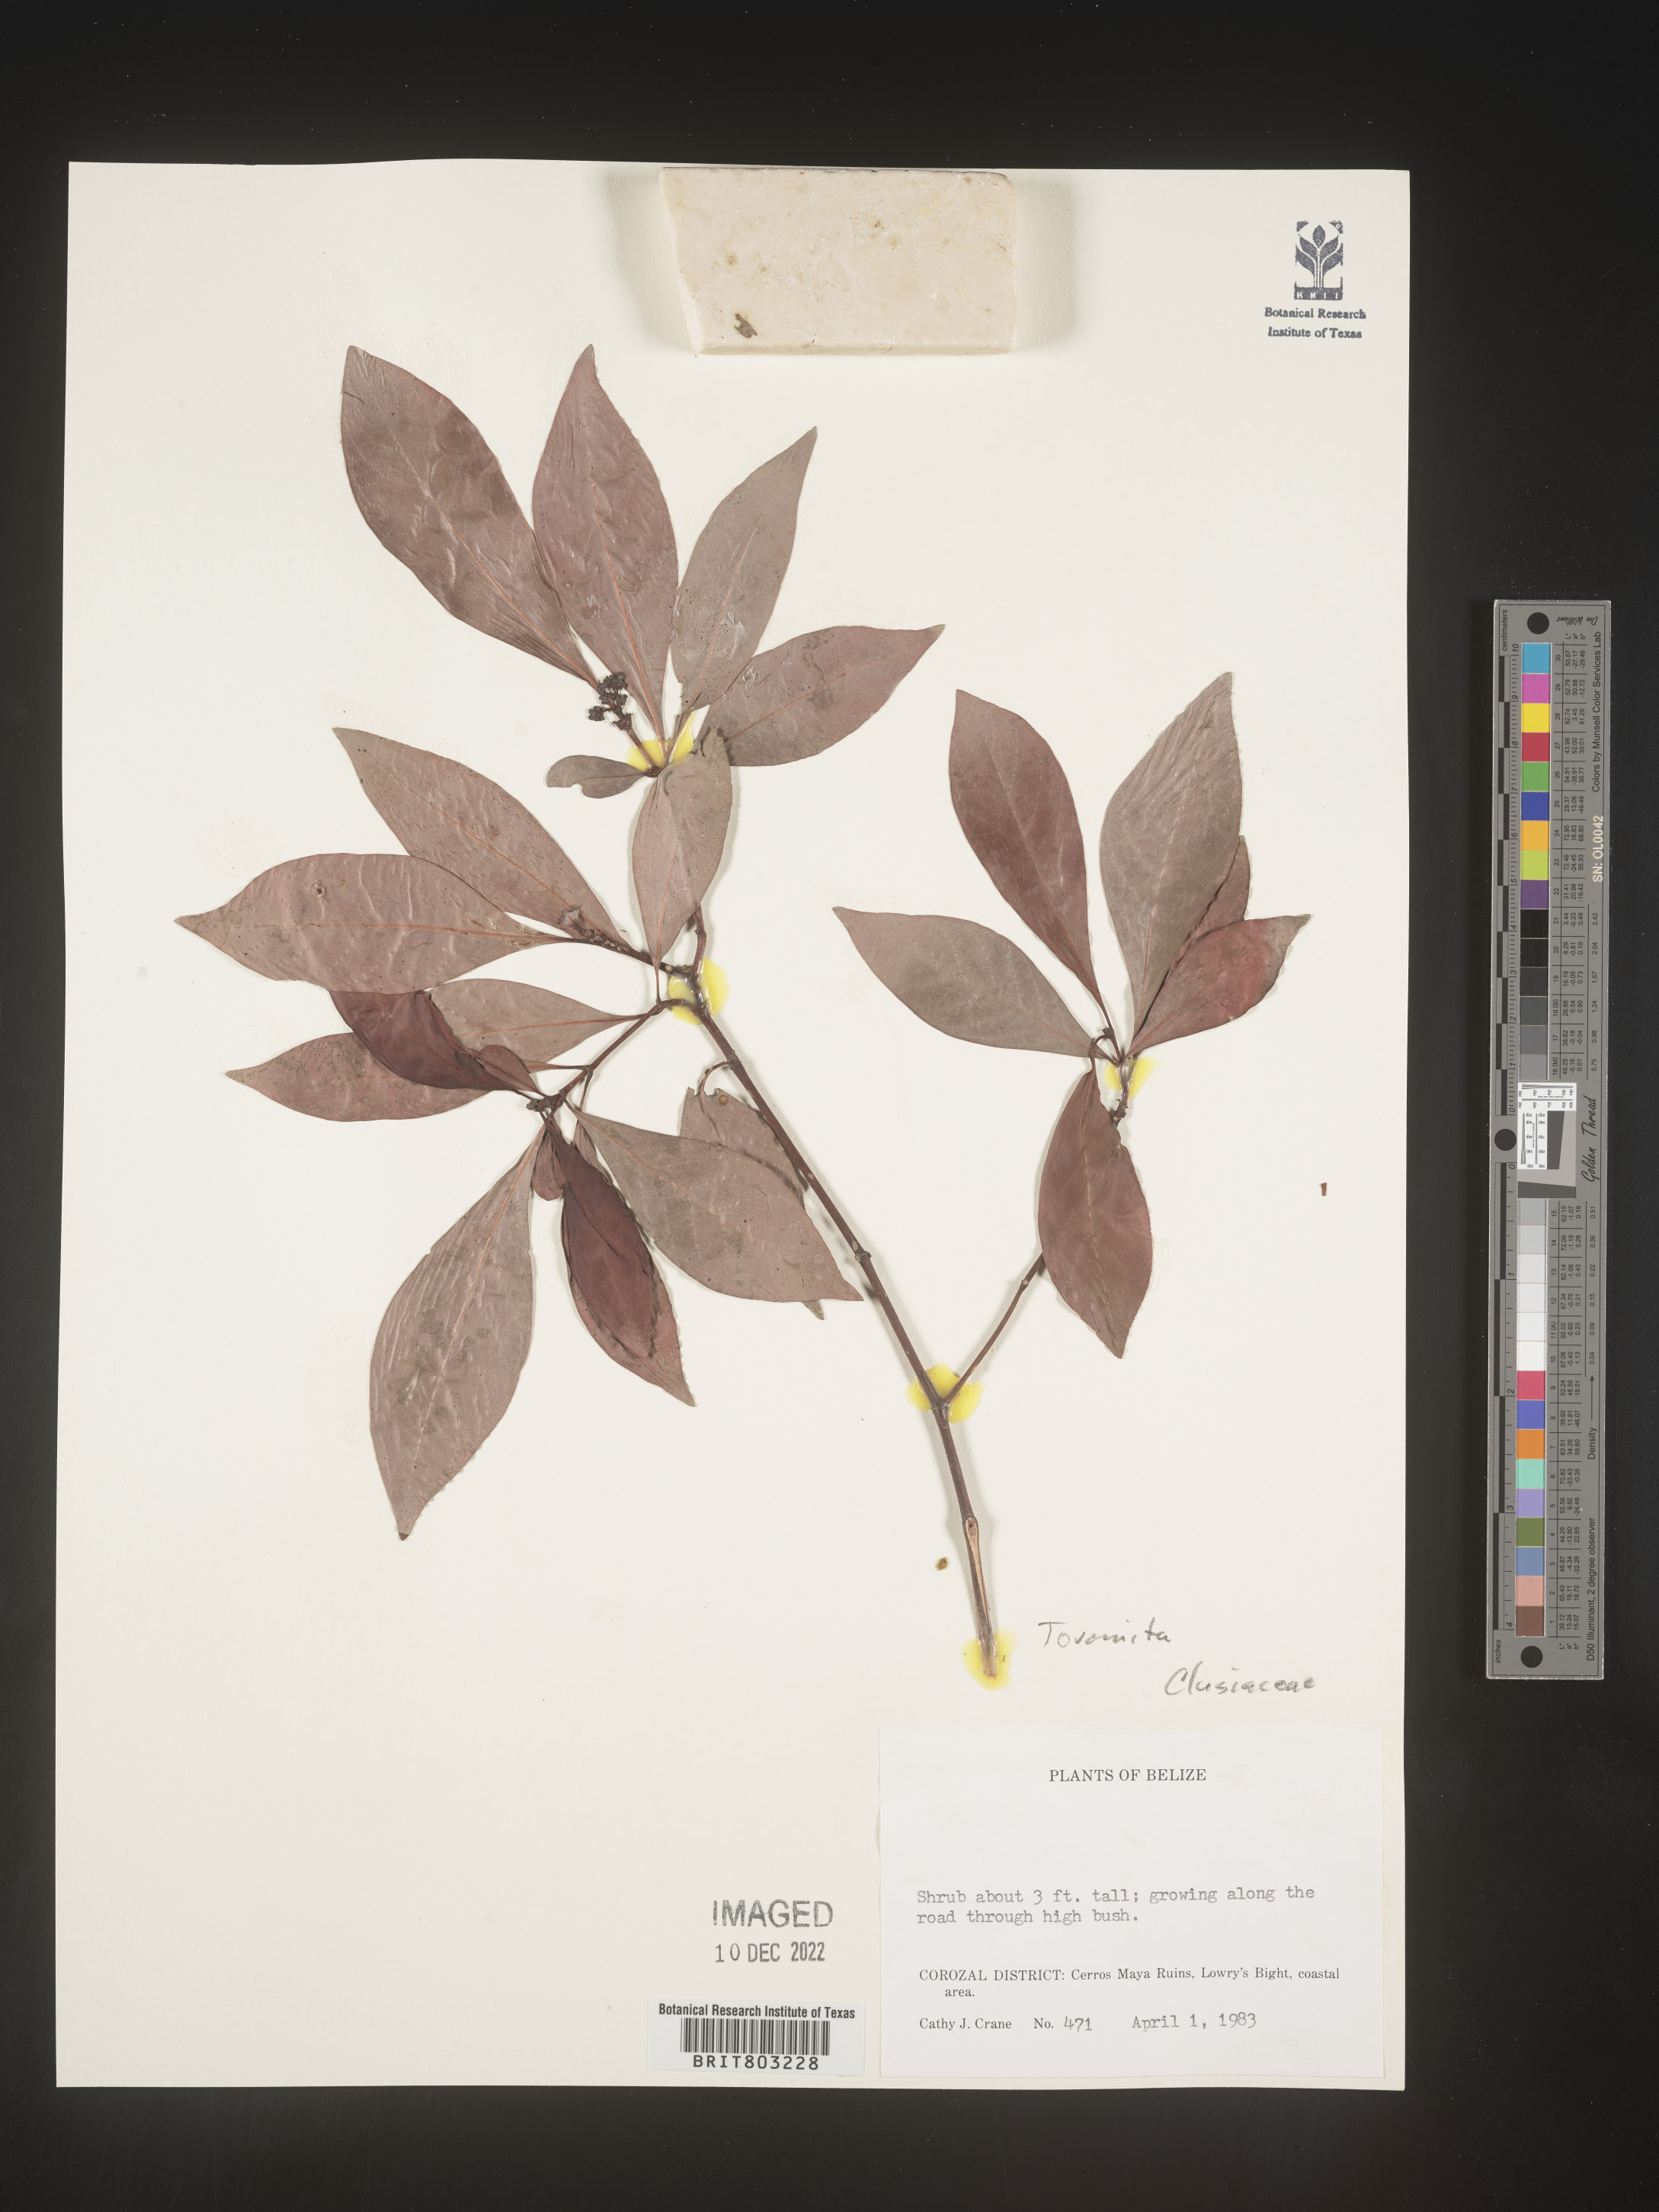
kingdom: Plantae
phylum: Tracheophyta
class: Magnoliopsida
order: Malpighiales
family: Clusiaceae
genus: Tovomita
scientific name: Tovomita
